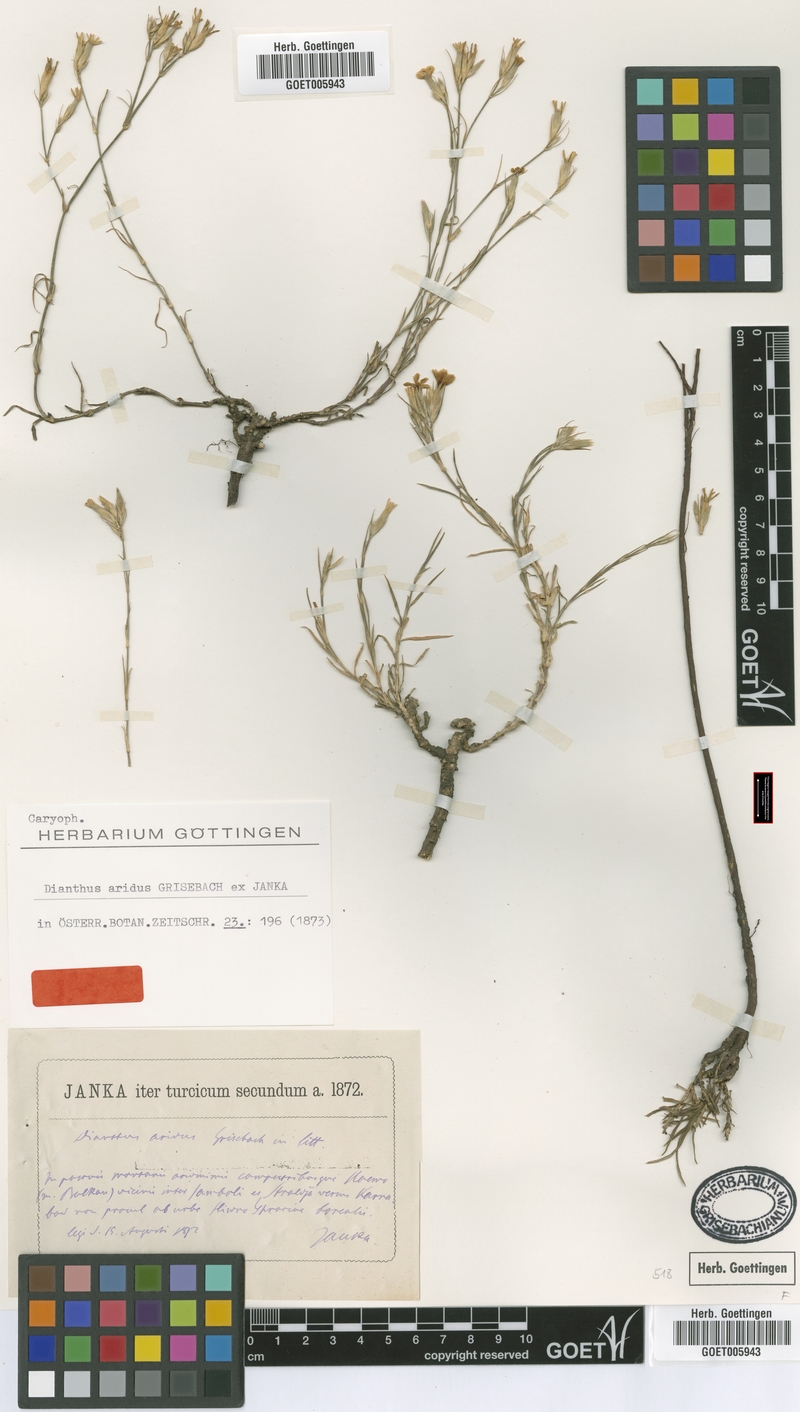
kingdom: Plantae
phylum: Tracheophyta
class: Magnoliopsida
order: Caryophyllales
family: Caryophyllaceae
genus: Dianthus
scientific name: Dianthus pallens
